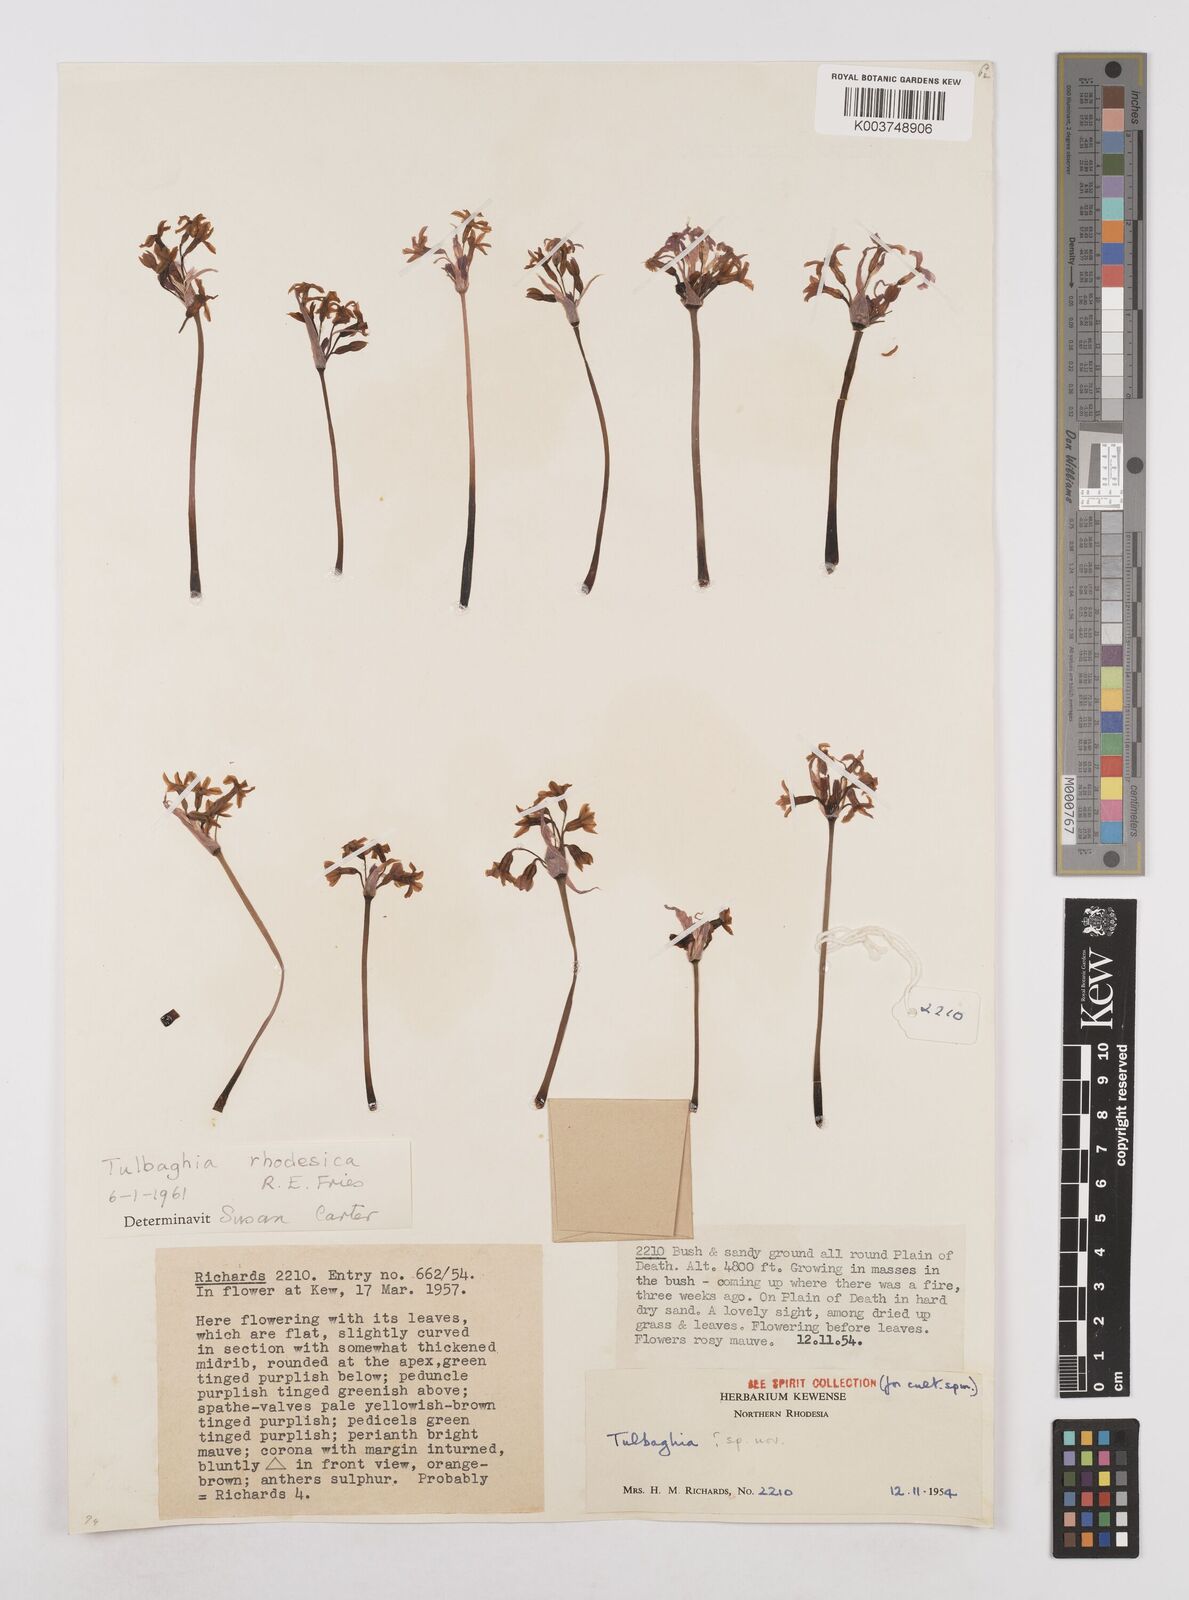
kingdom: Plantae
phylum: Tracheophyta
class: Liliopsida
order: Asparagales
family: Amaryllidaceae
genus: Tulbaghia
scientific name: Tulbaghia rhodesica
